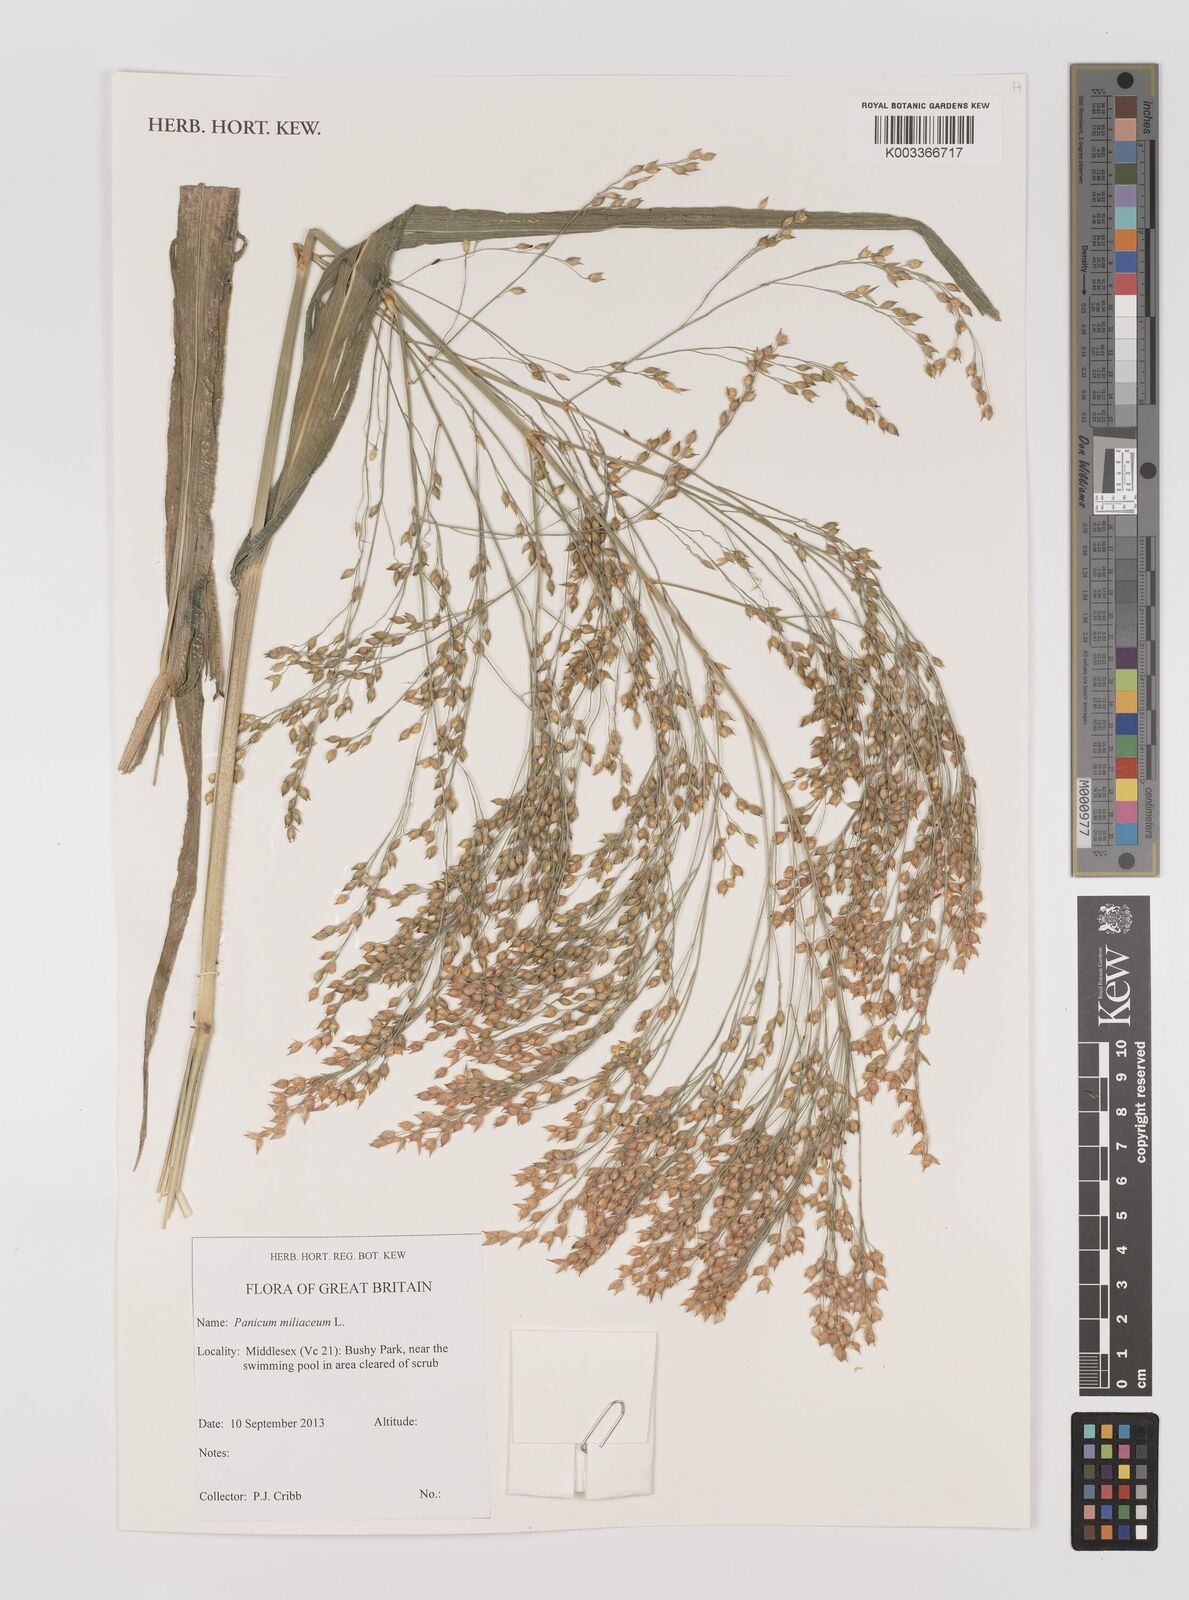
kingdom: Plantae
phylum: Tracheophyta
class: Liliopsida
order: Poales
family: Poaceae
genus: Panicum
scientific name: Panicum miliaceum
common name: Common millet
